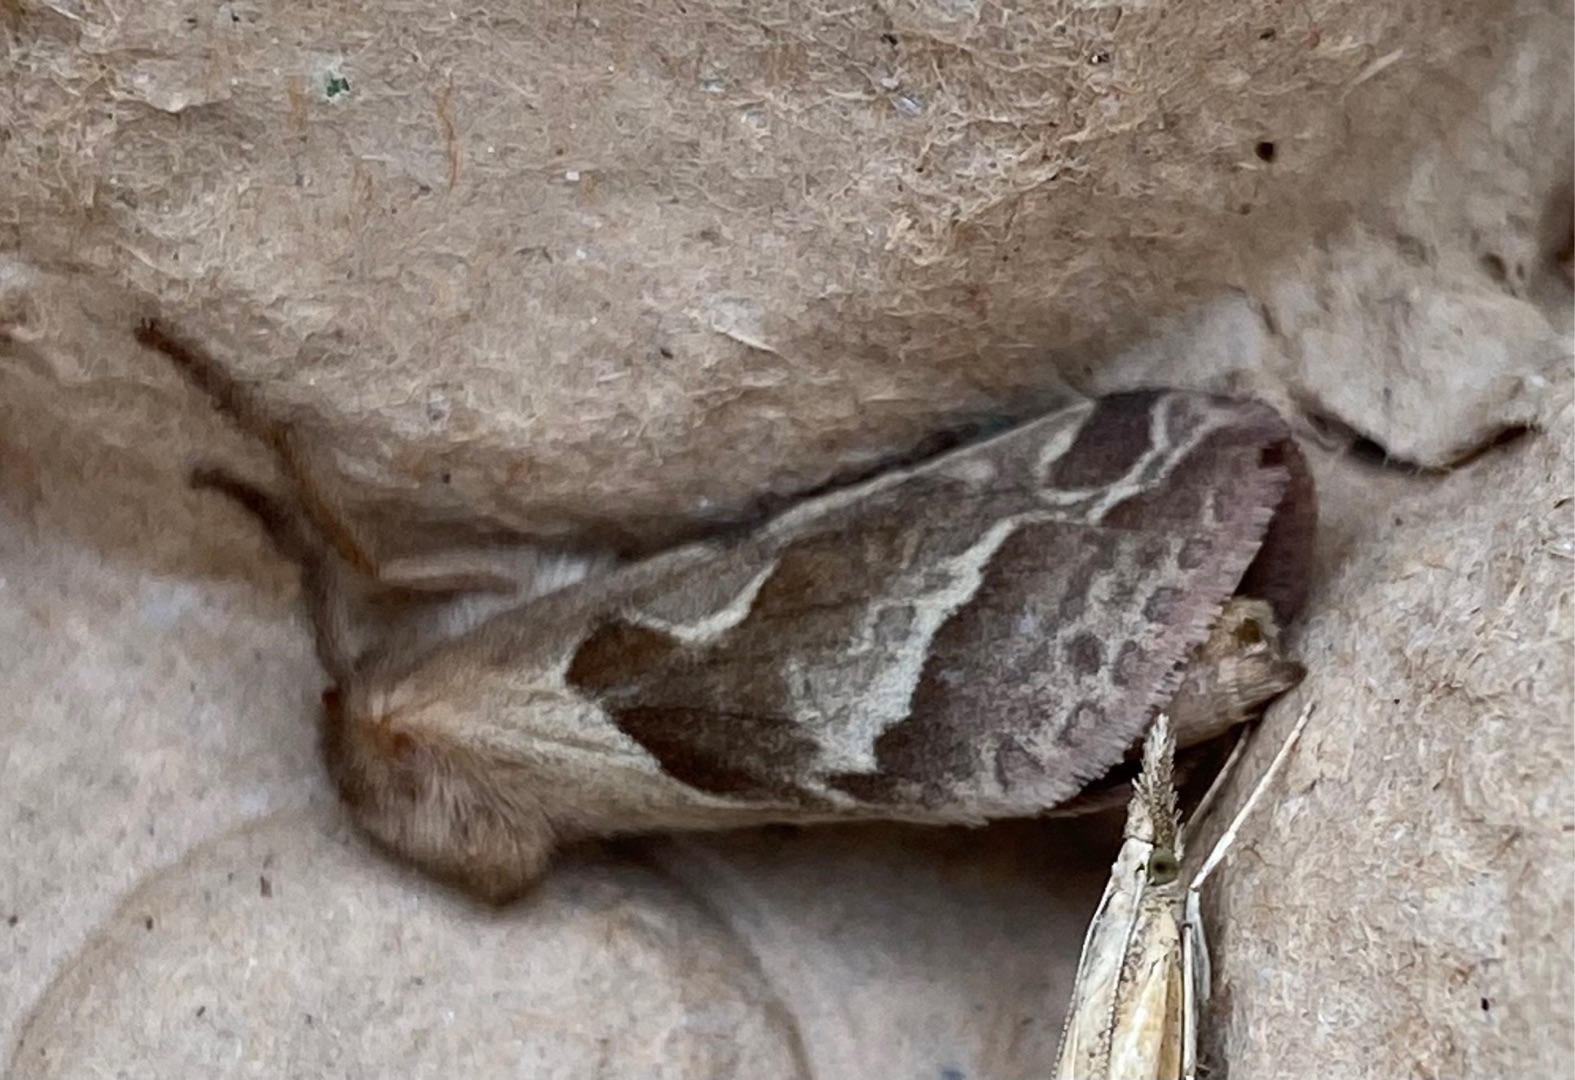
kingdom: Animalia
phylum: Arthropoda
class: Insecta
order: Lepidoptera
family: Hepialidae
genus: Triodia
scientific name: Triodia sylvina
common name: Skræpperodæder
